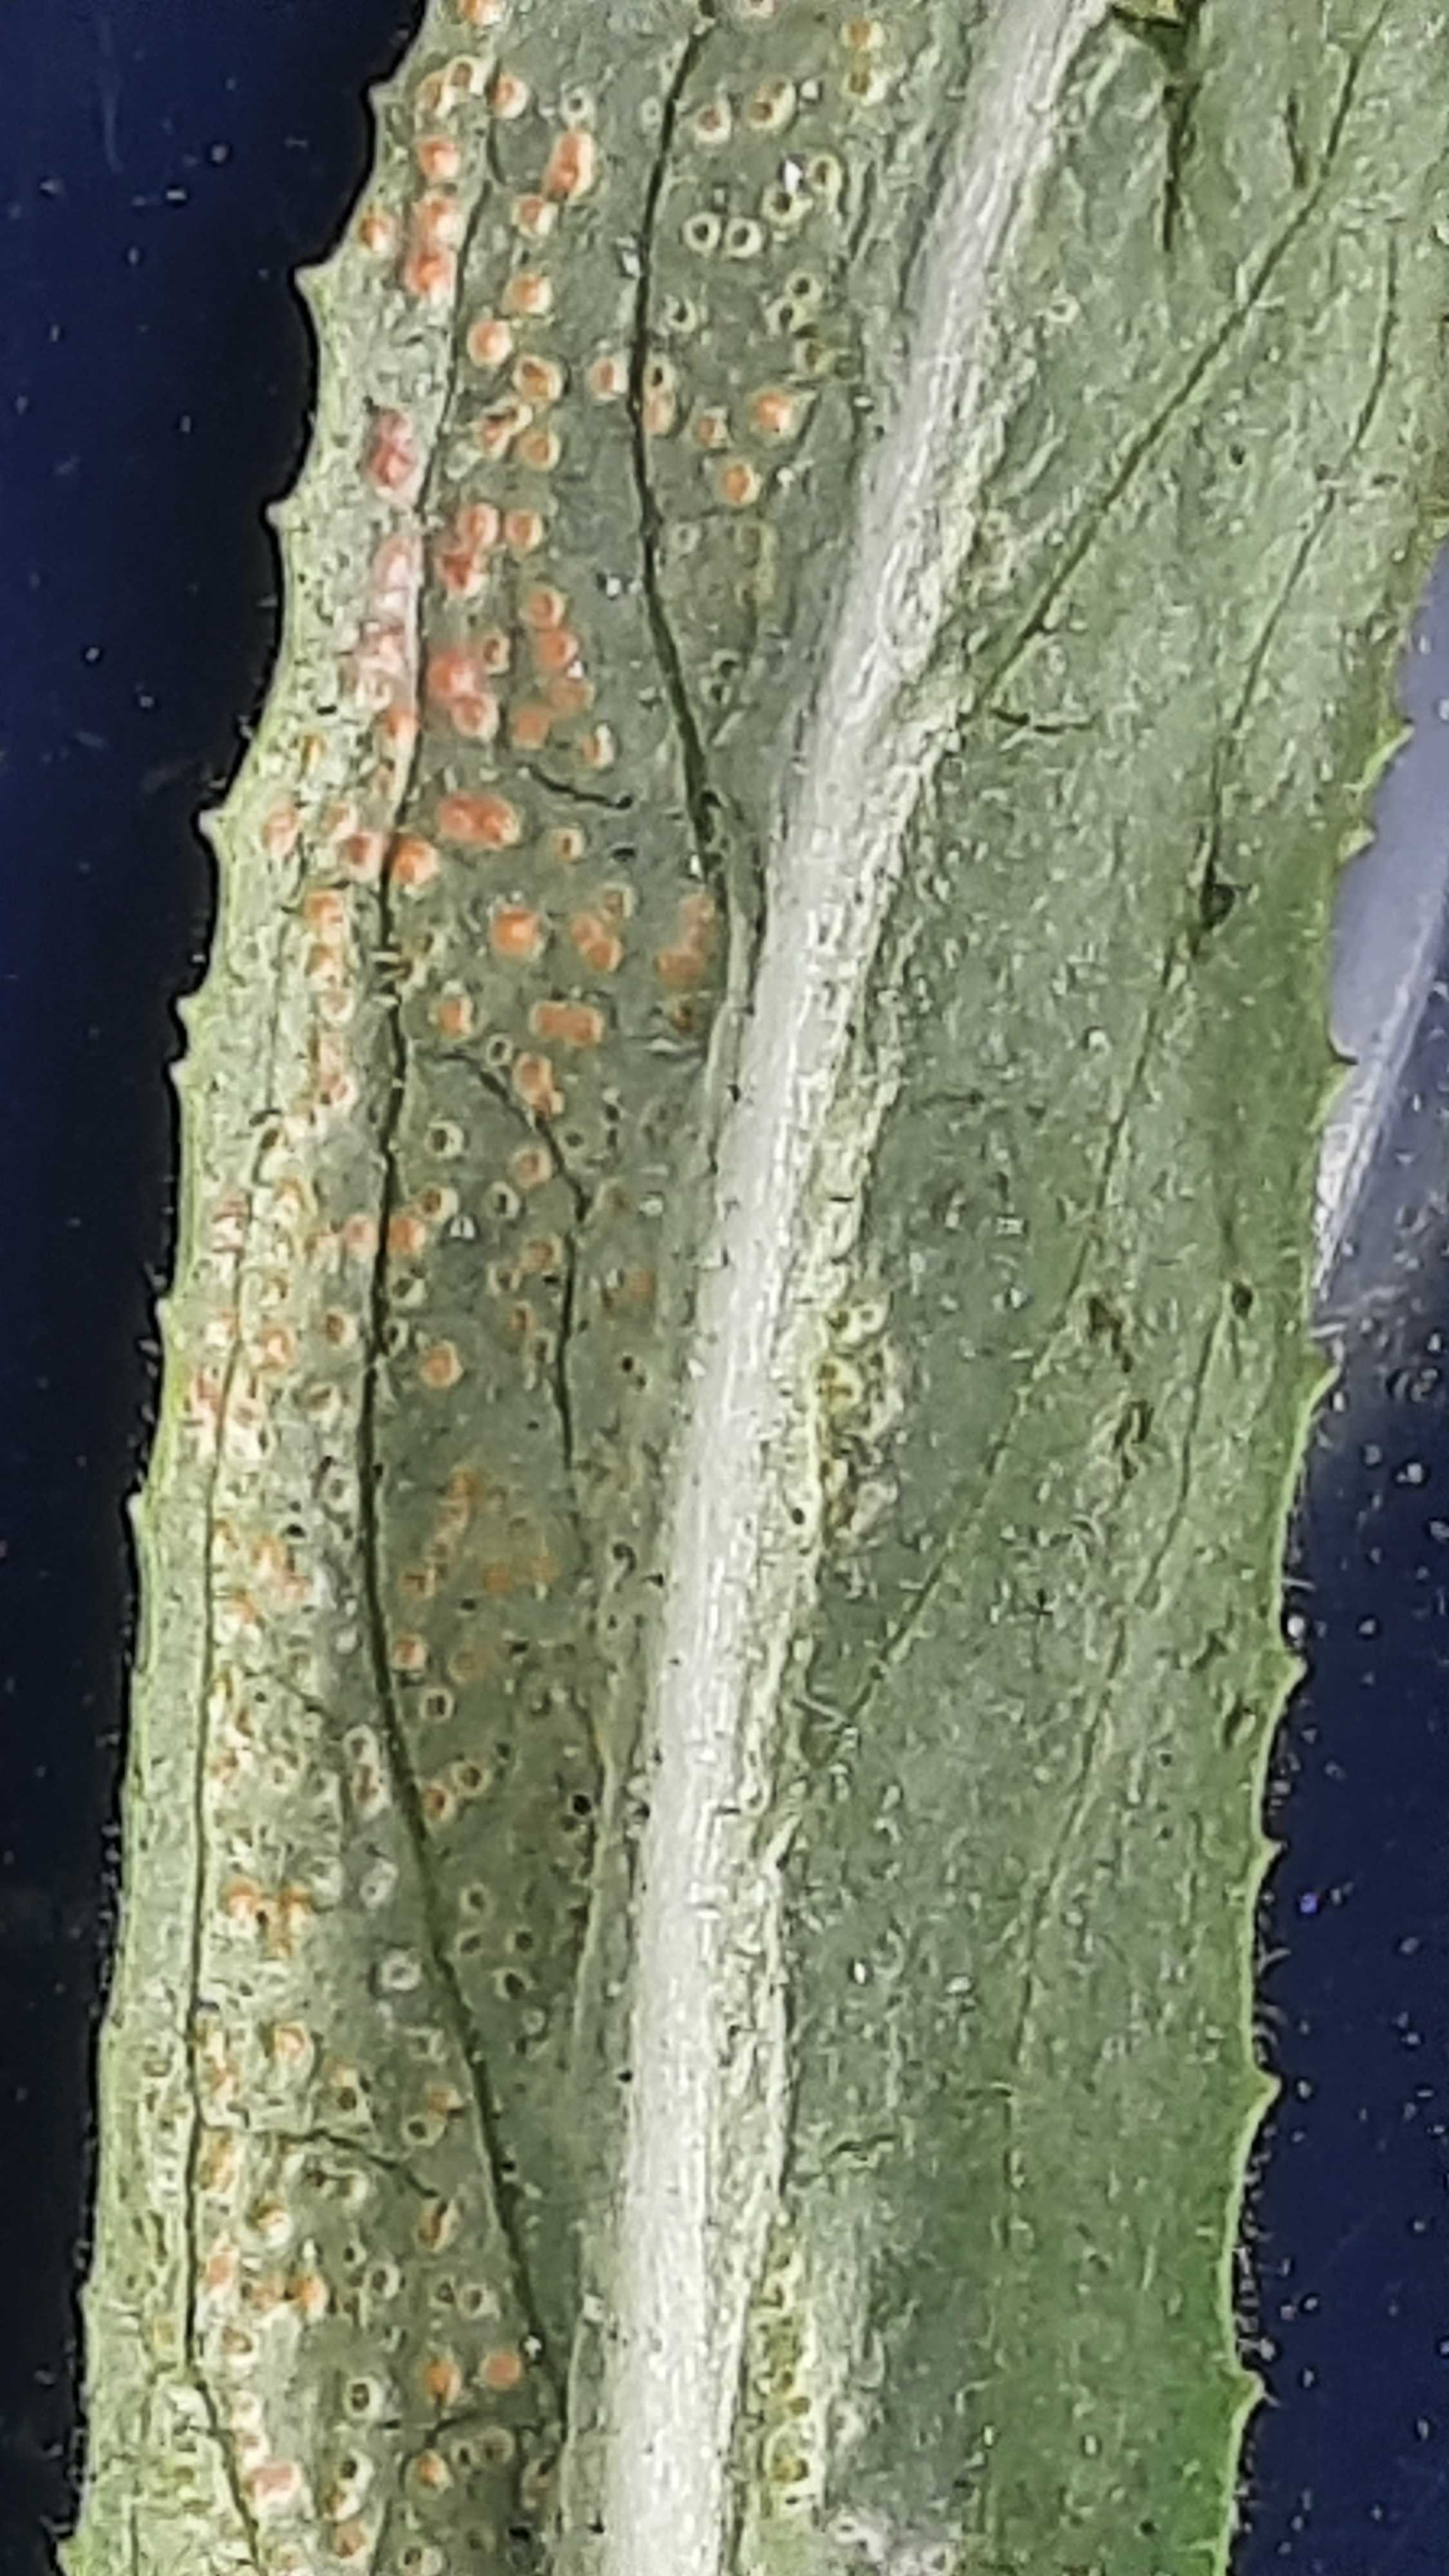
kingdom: Fungi
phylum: Basidiomycota
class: Pucciniomycetes
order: Pucciniales
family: Pucciniaceae
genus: Puccinia
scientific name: Puccinia pulverulenta
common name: dueurt-tvecellerust
